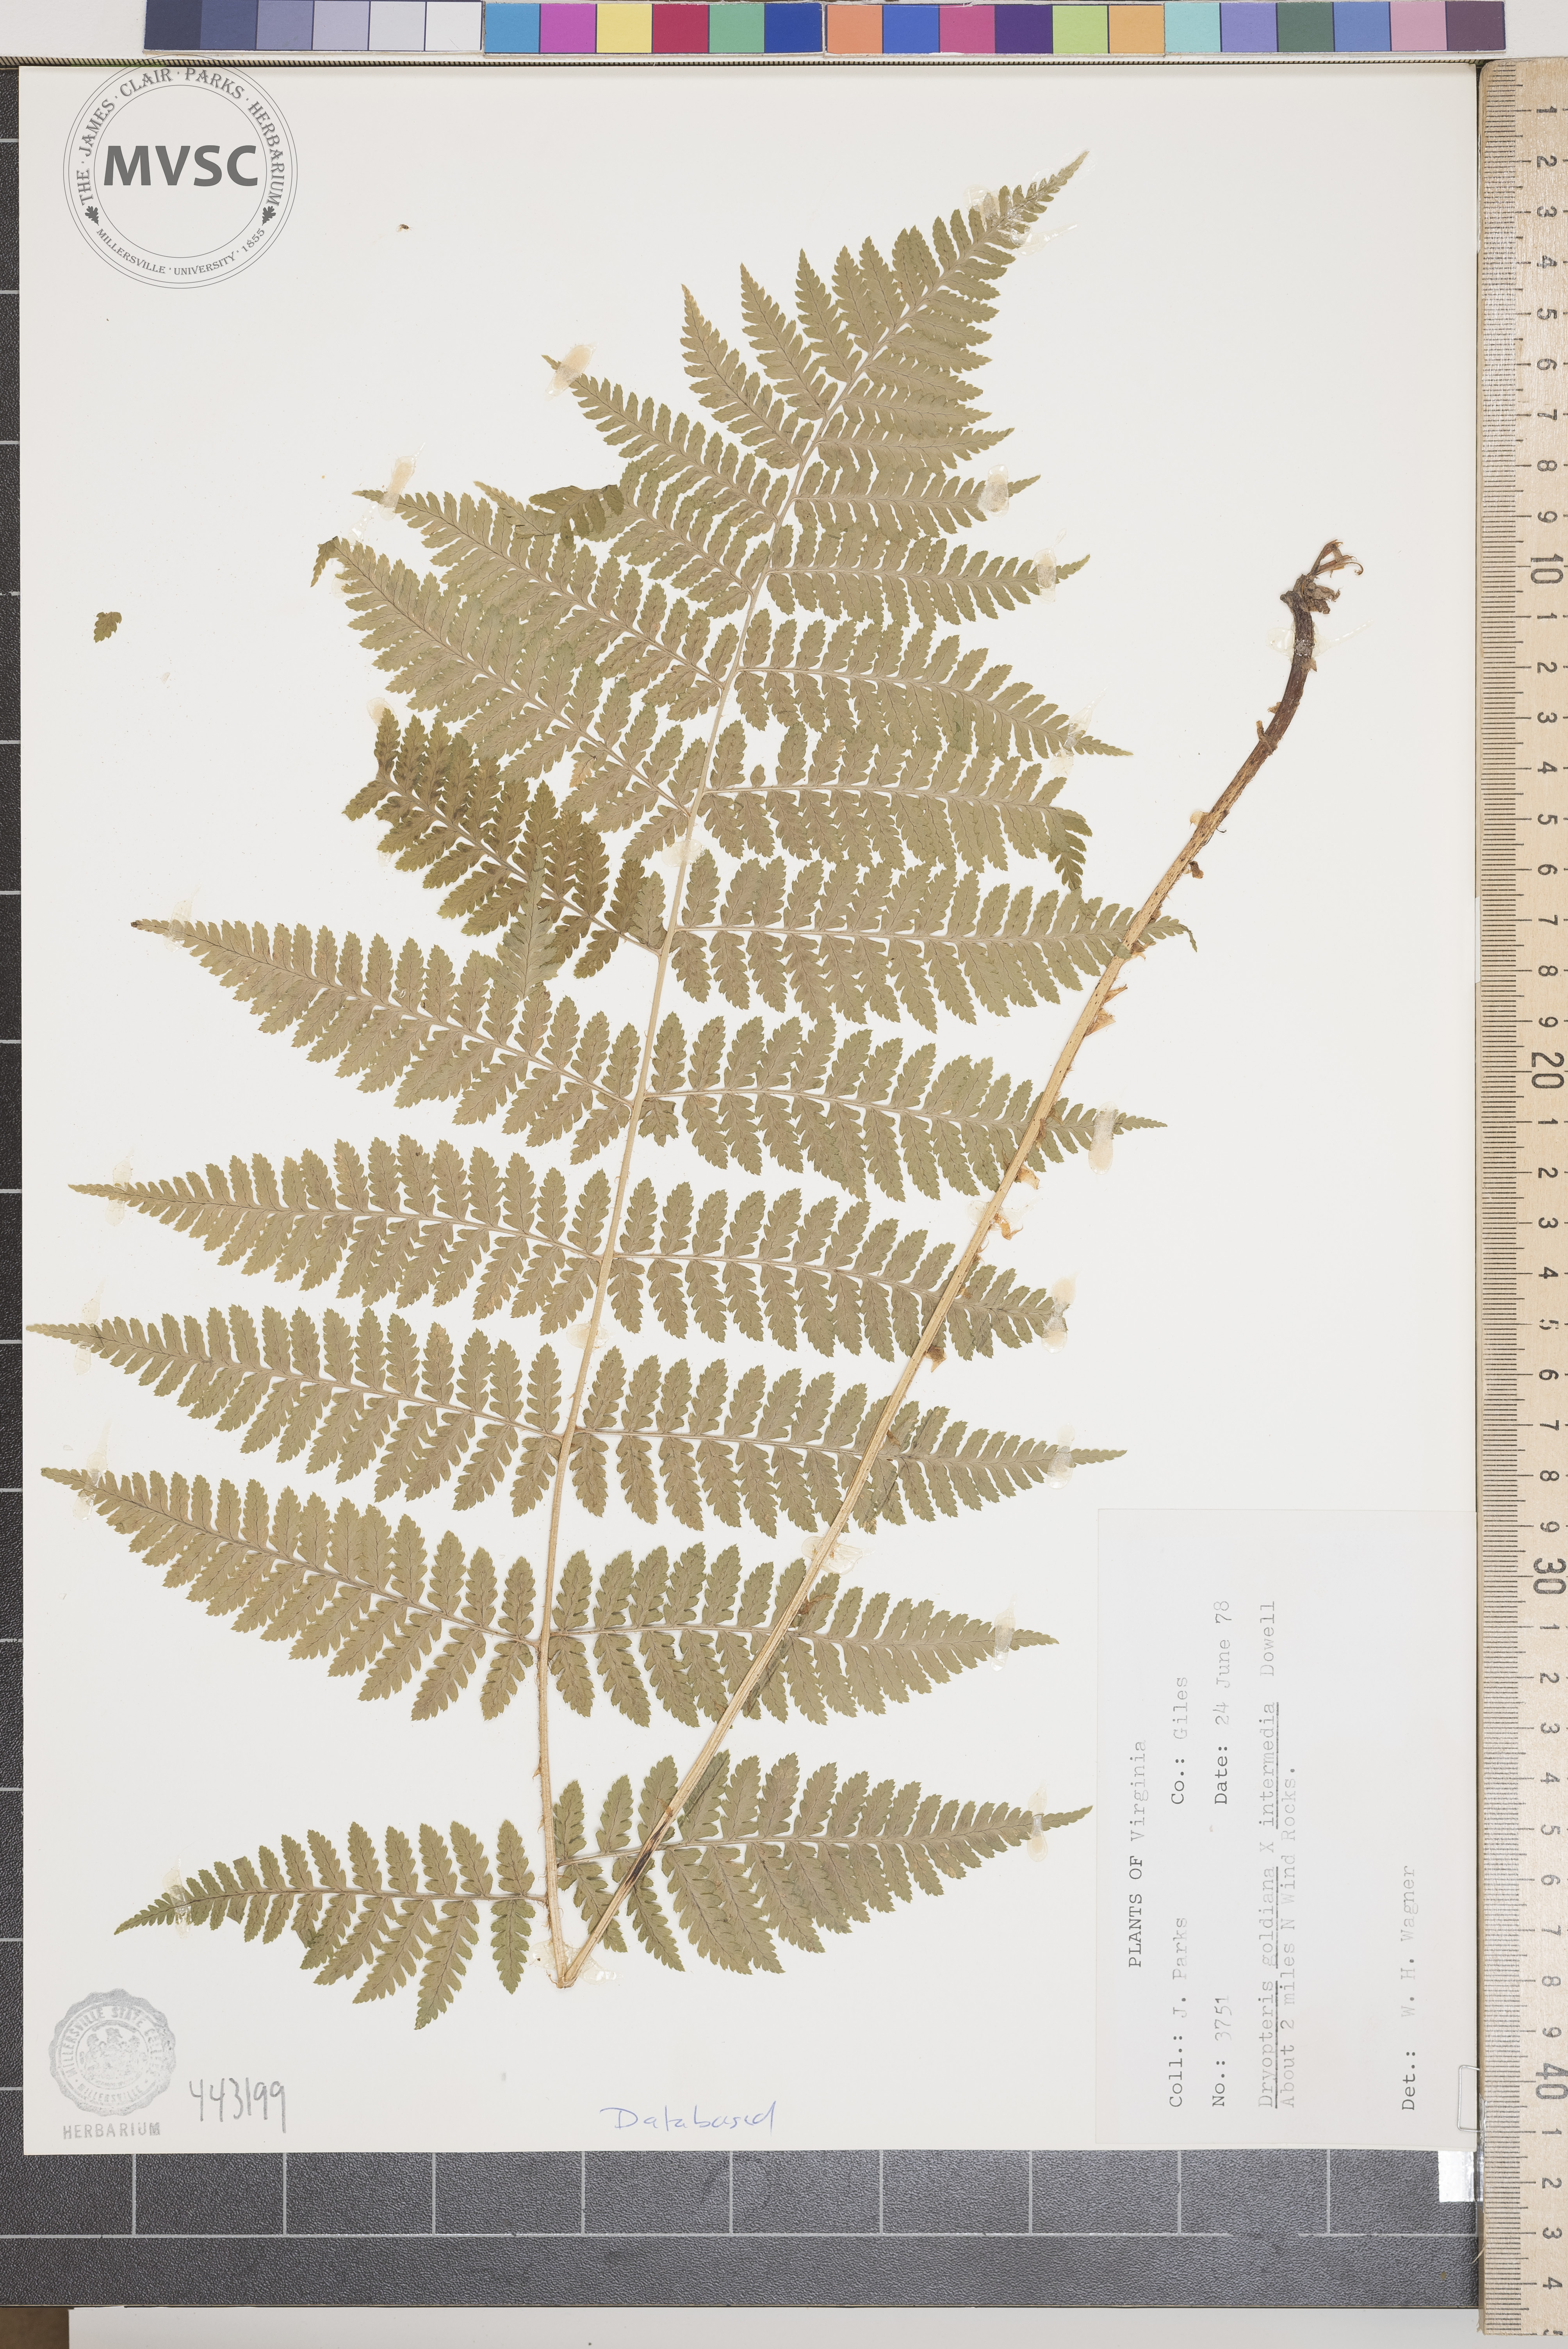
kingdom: Plantae
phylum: Tracheophyta
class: Polypodiopsida
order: Polypodiales
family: Dryopteridaceae
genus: Dryopteris
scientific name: Dryopteris
